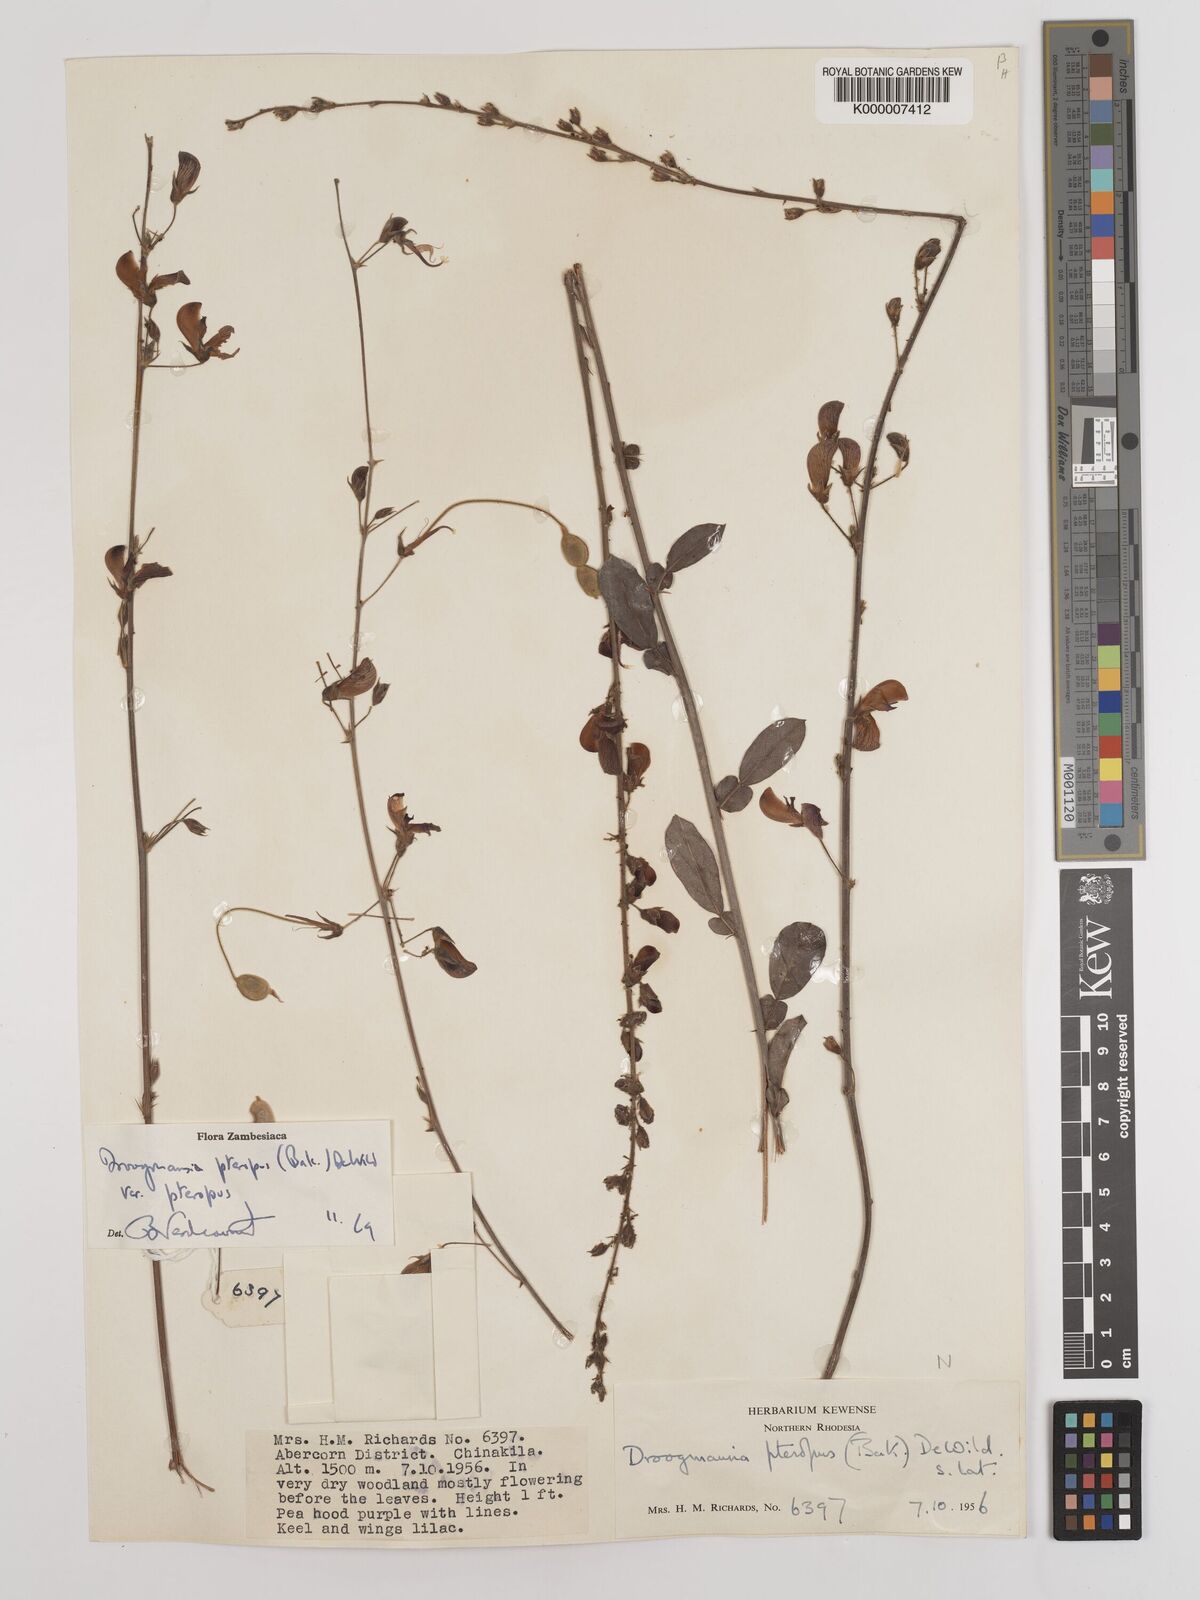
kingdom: Plantae
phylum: Tracheophyta
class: Magnoliopsida
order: Fabales
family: Fabaceae
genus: Droogmansia
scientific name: Droogmansia pteropus
